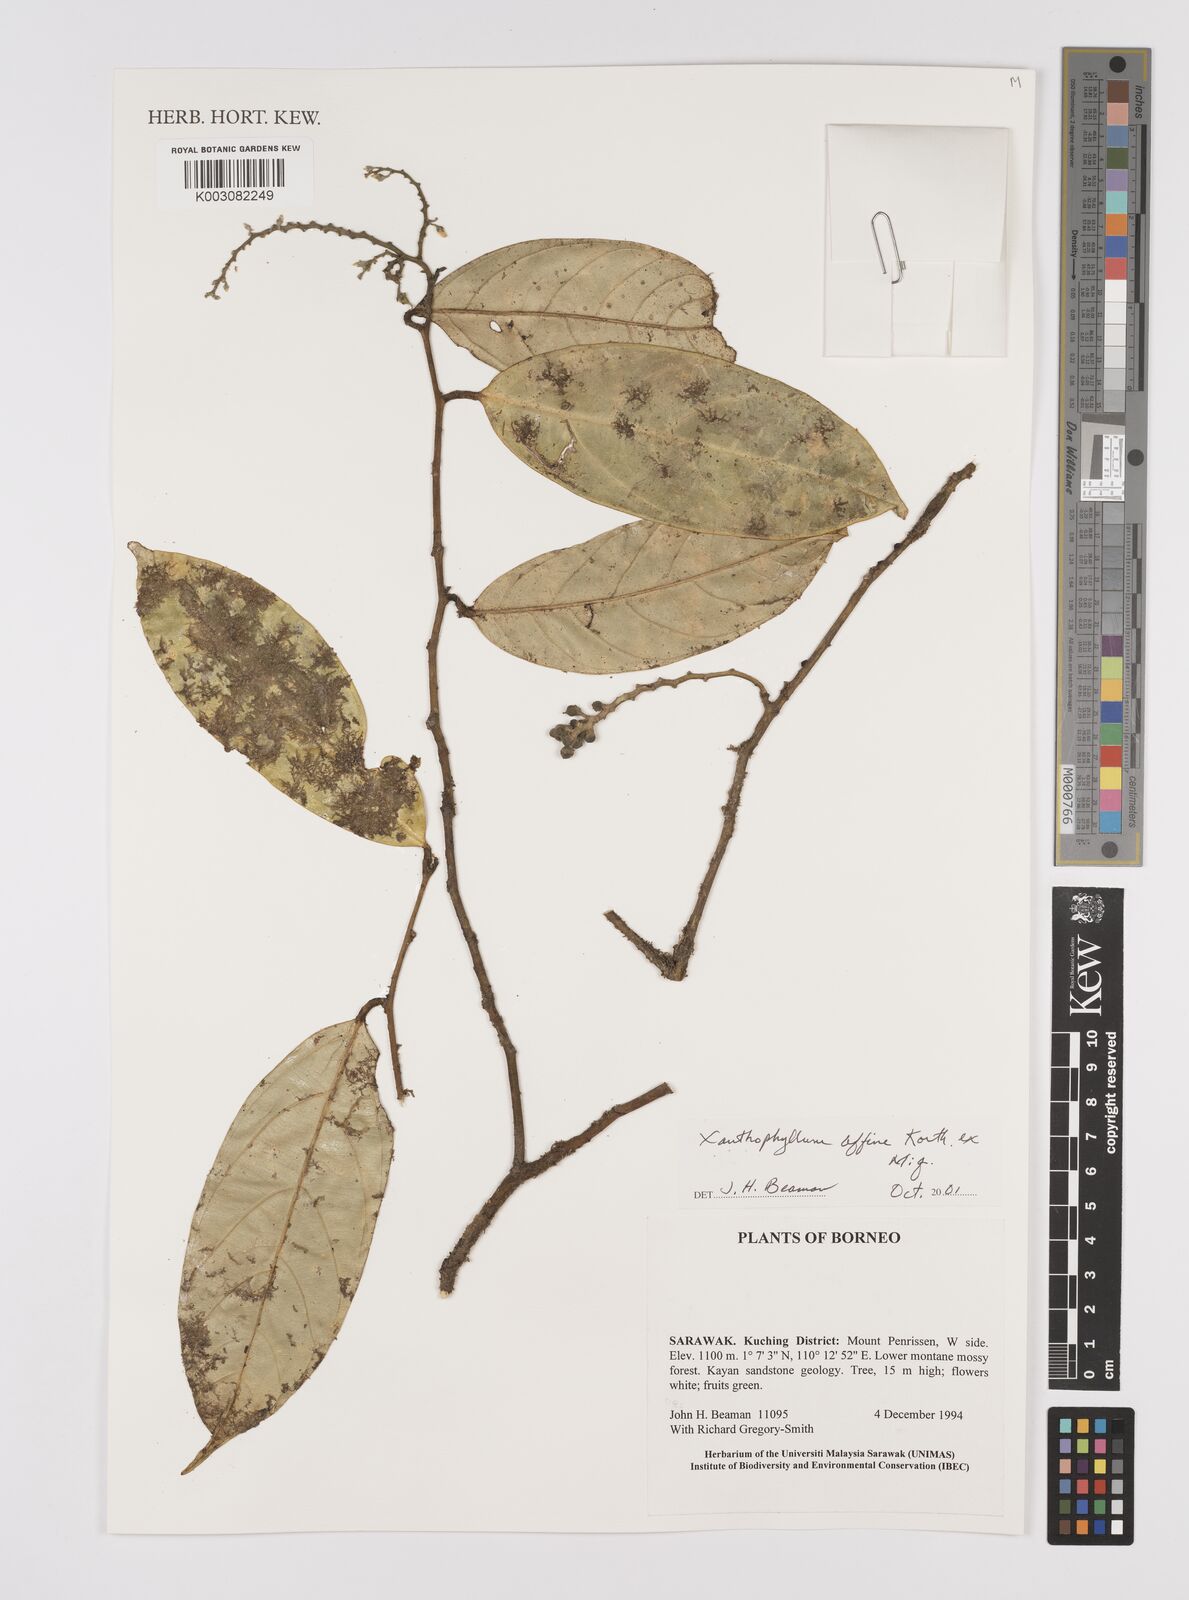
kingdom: Plantae
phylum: Tracheophyta
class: Magnoliopsida
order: Fabales
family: Polygalaceae
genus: Xanthophyllum
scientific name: Xanthophyllum flavescens
